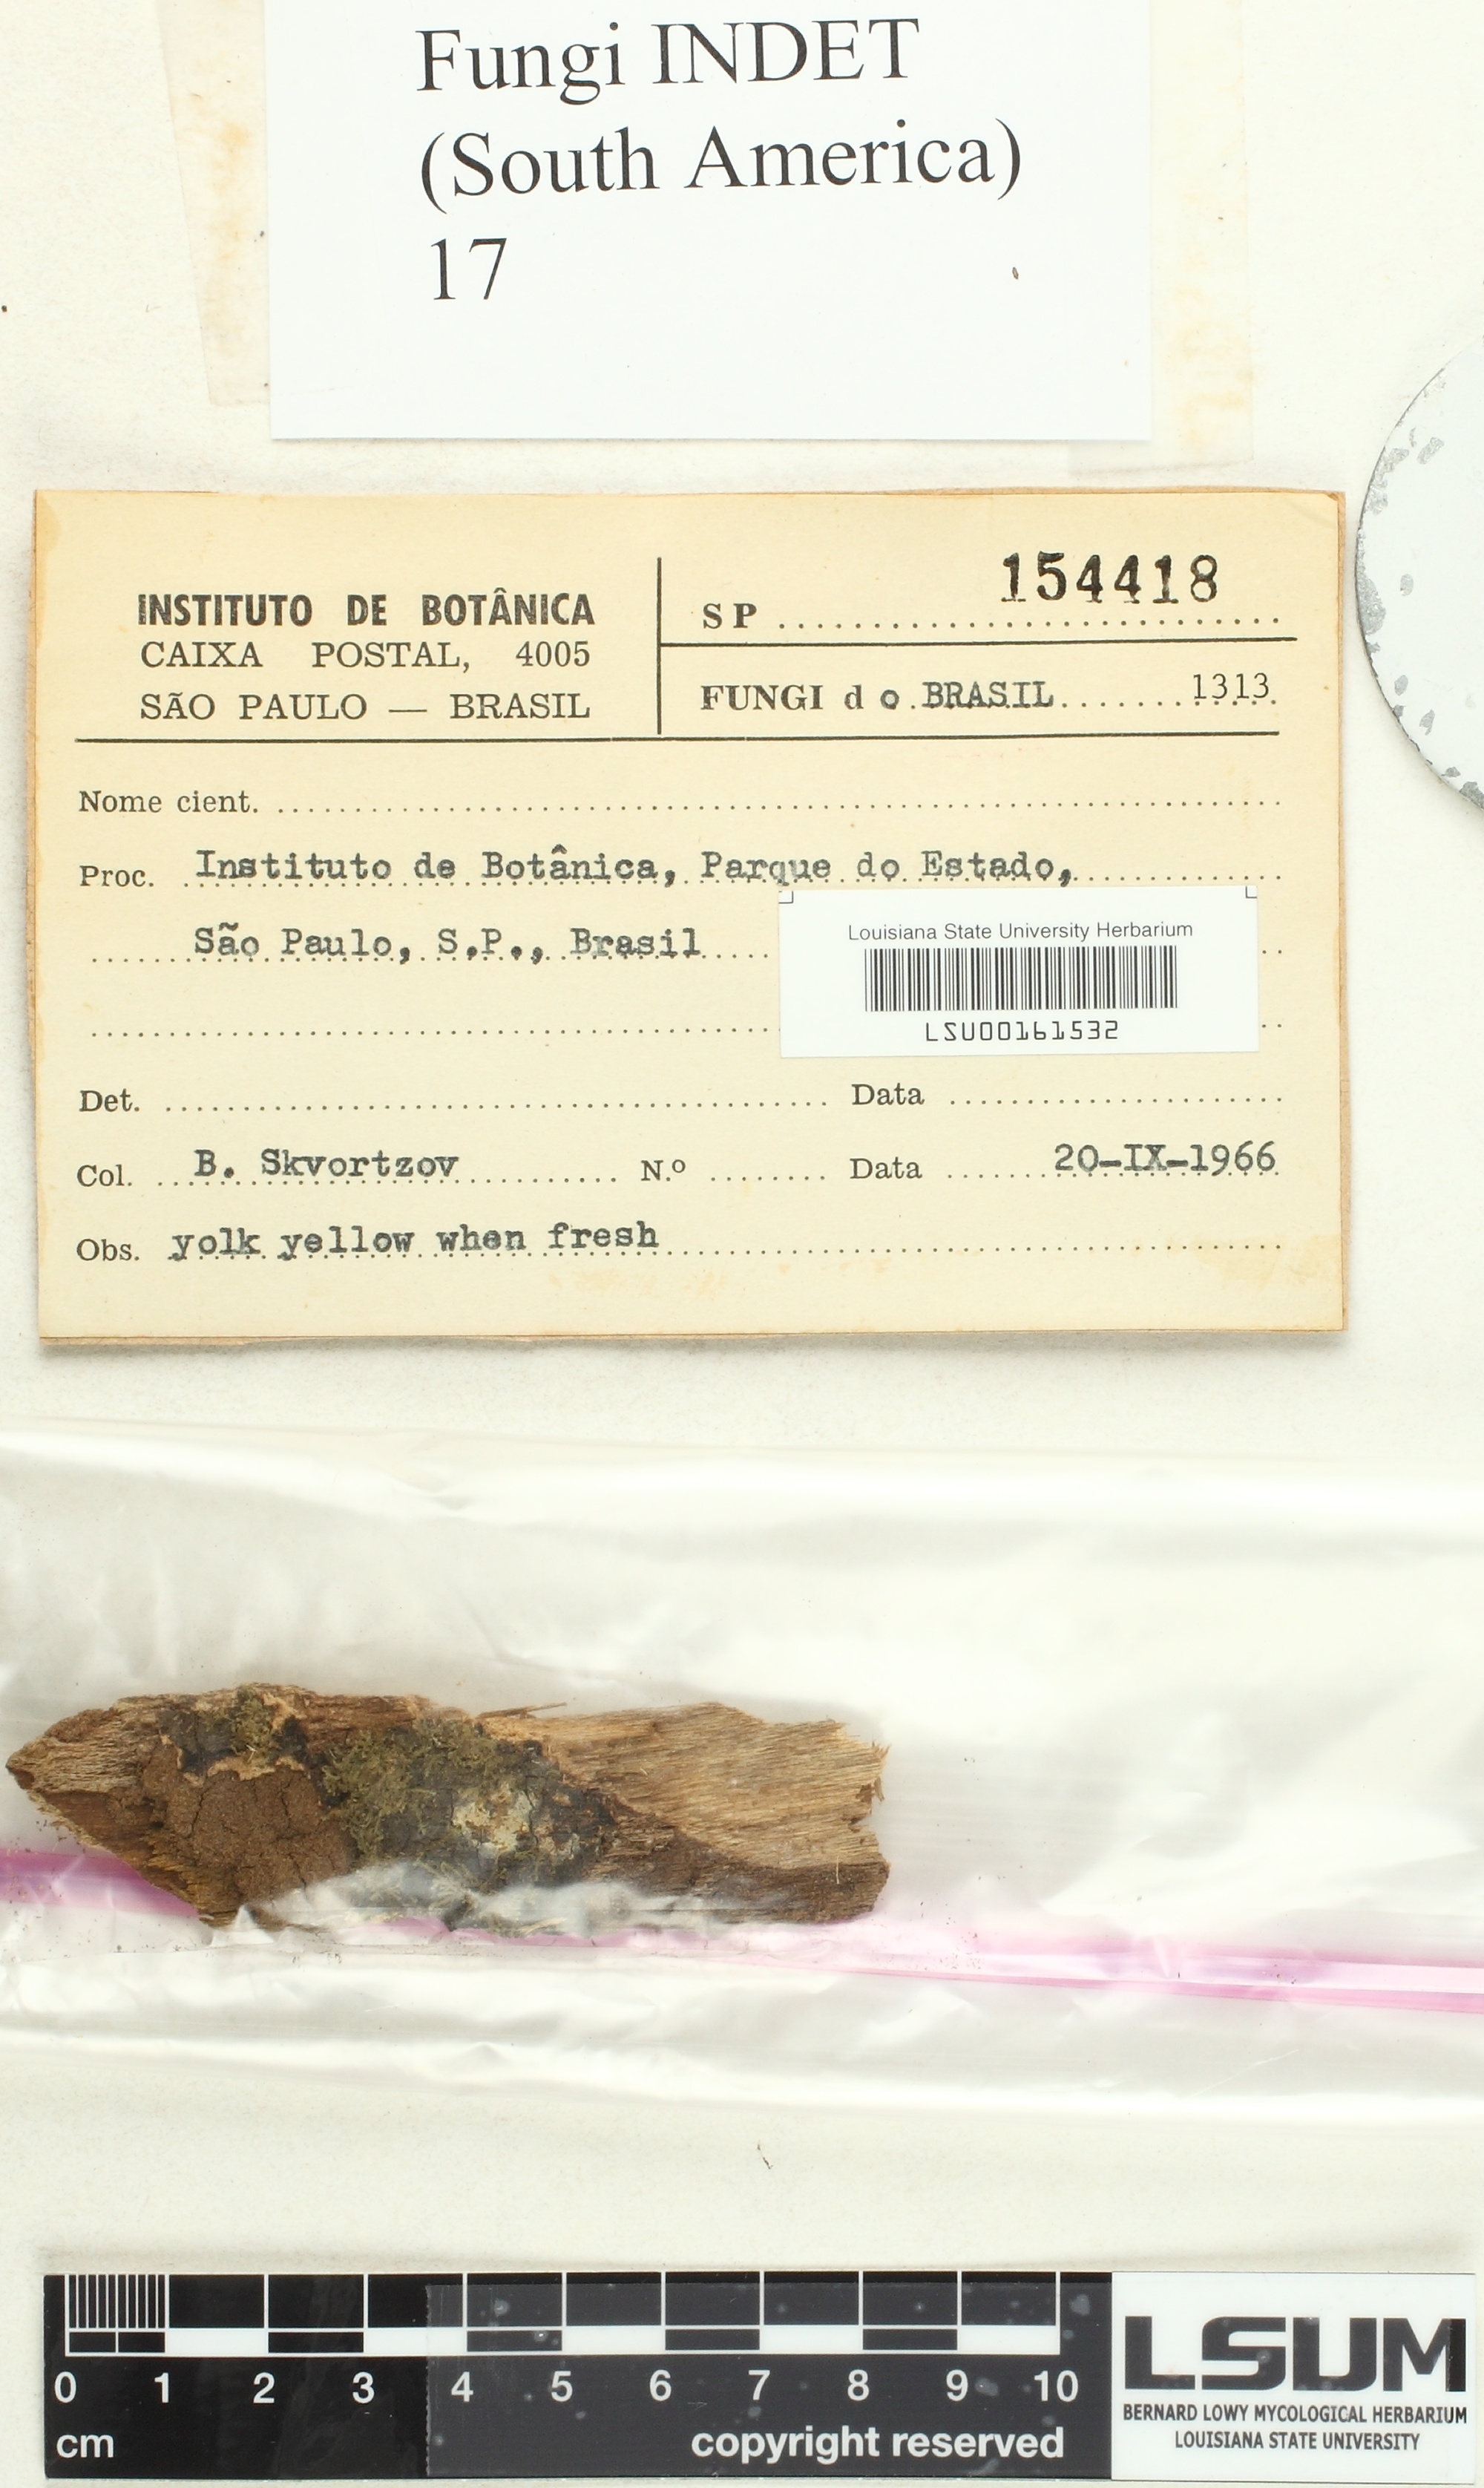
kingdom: Fungi
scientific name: Fungi
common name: Fungi
